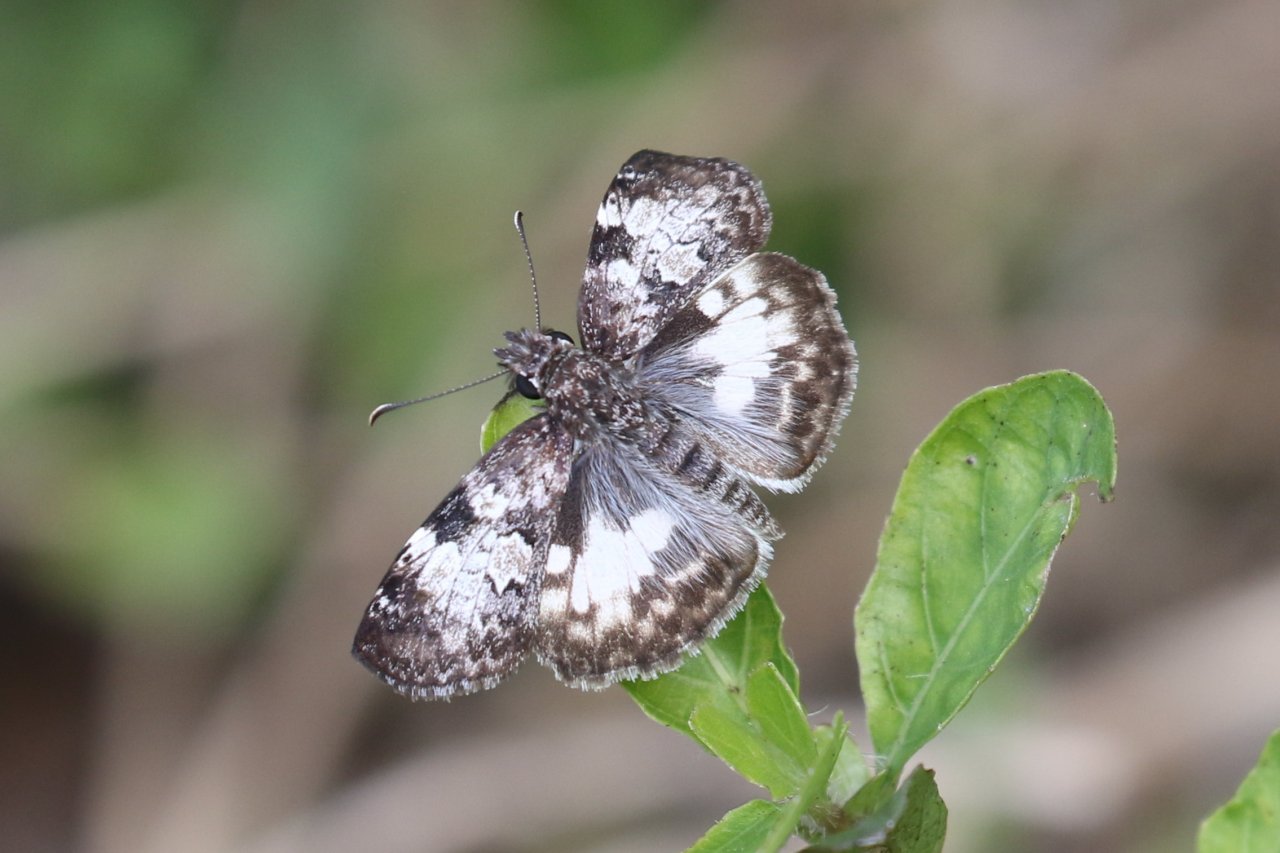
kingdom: Animalia
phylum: Arthropoda
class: Insecta
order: Lepidoptera
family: Hesperiidae
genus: Chiomara
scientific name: Chiomara asychis
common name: White-patched Skipper
